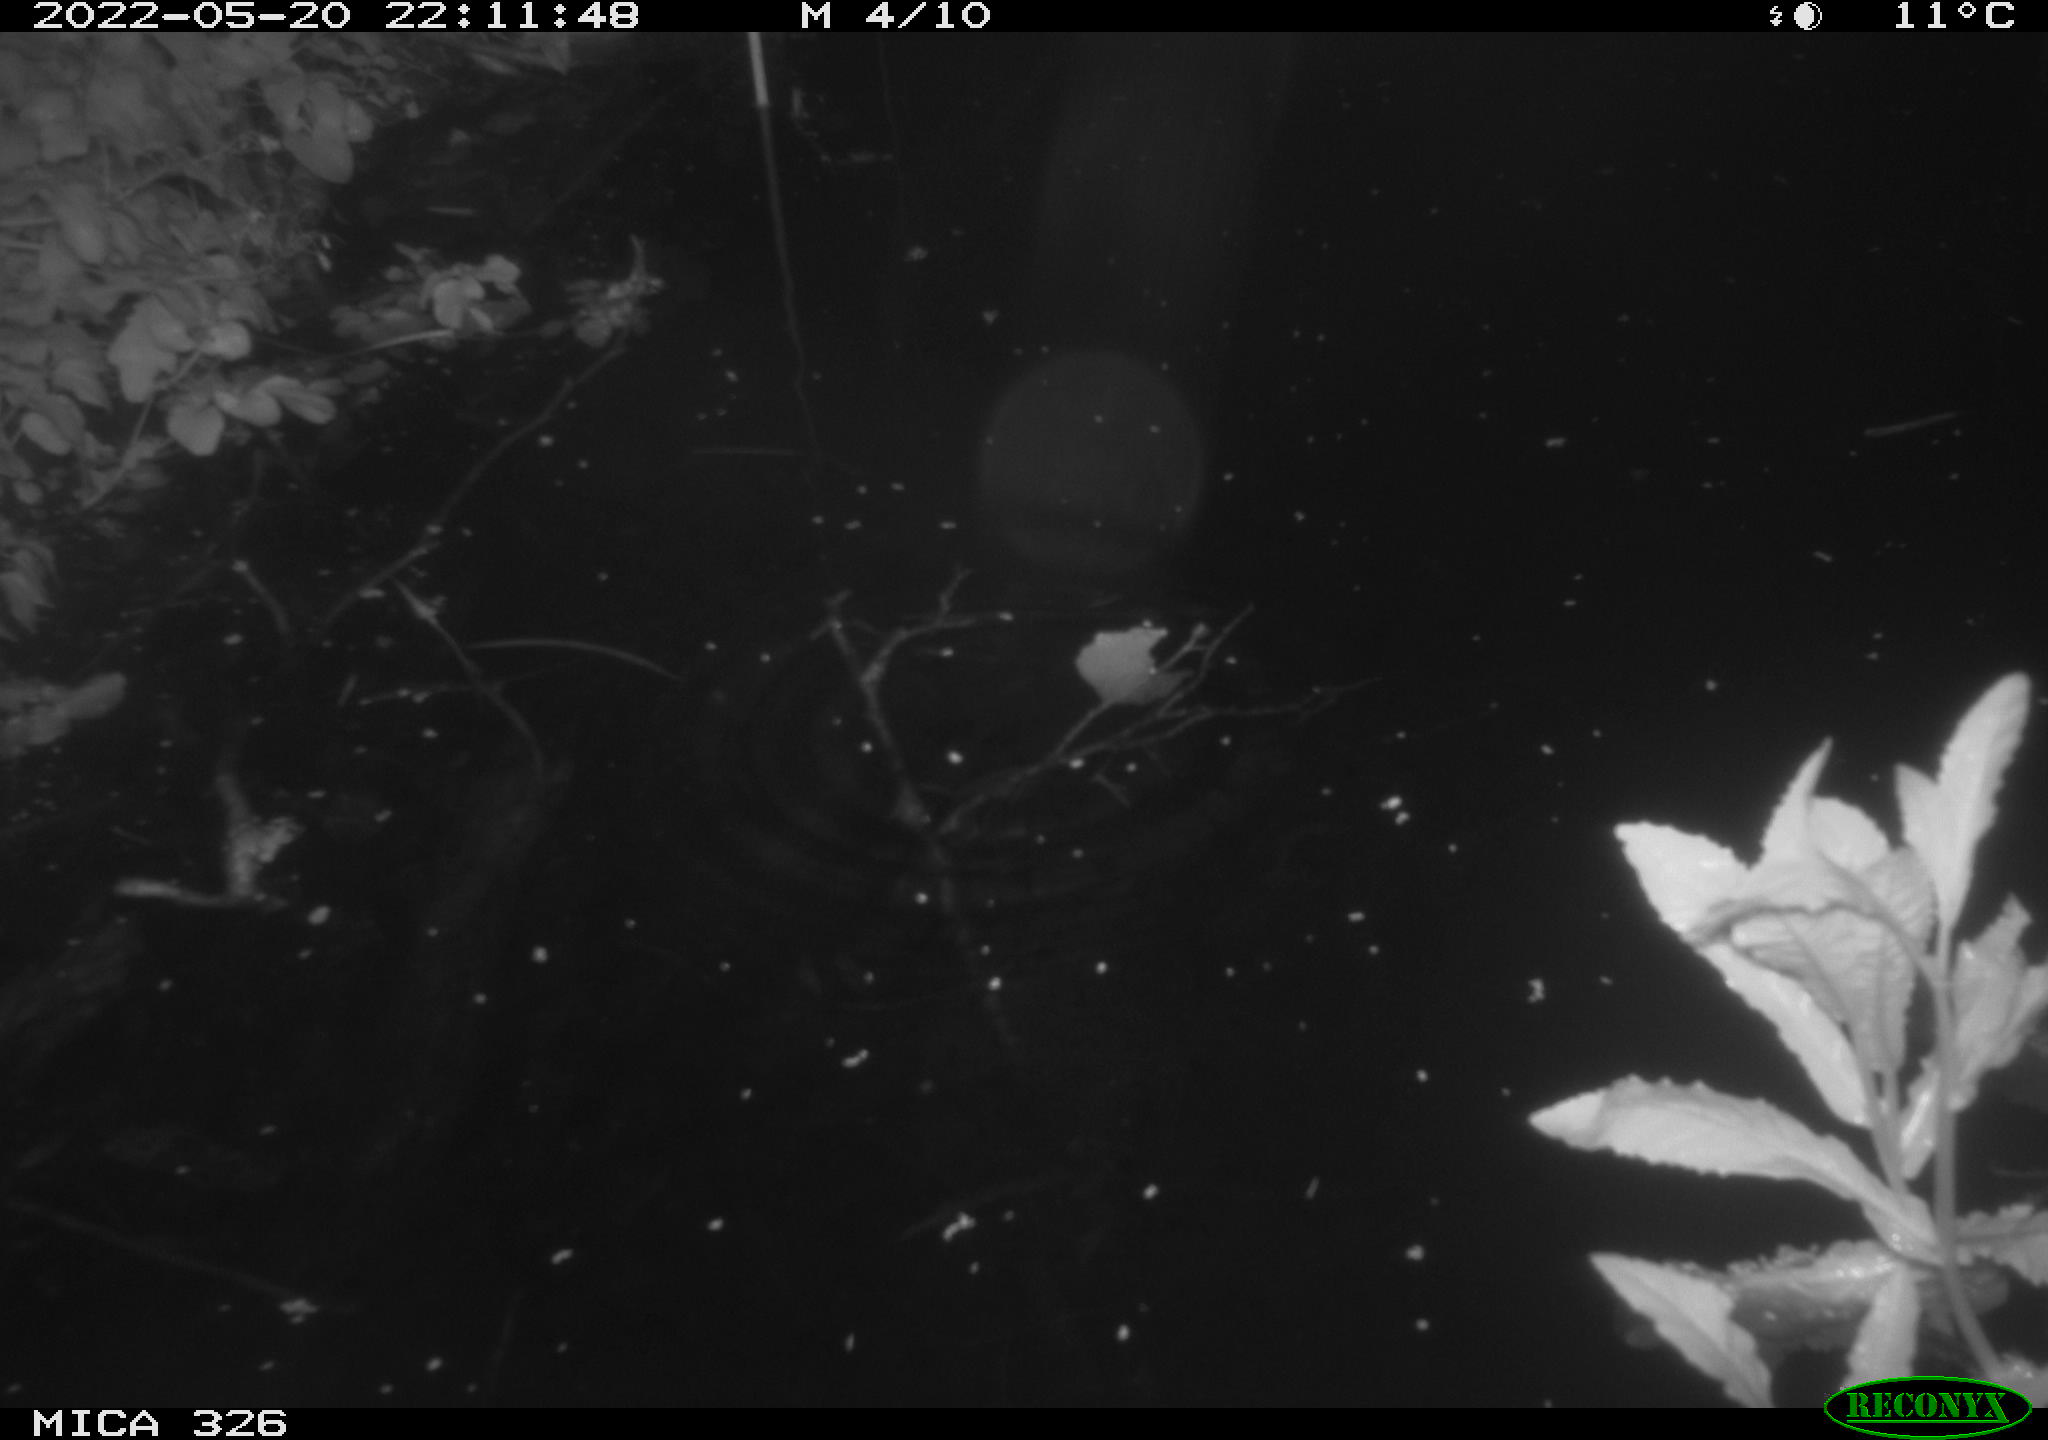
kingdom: Animalia
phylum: Chordata
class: Mammalia
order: Rodentia
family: Muridae
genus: Rattus
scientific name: Rattus norvegicus
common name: Brown rat
